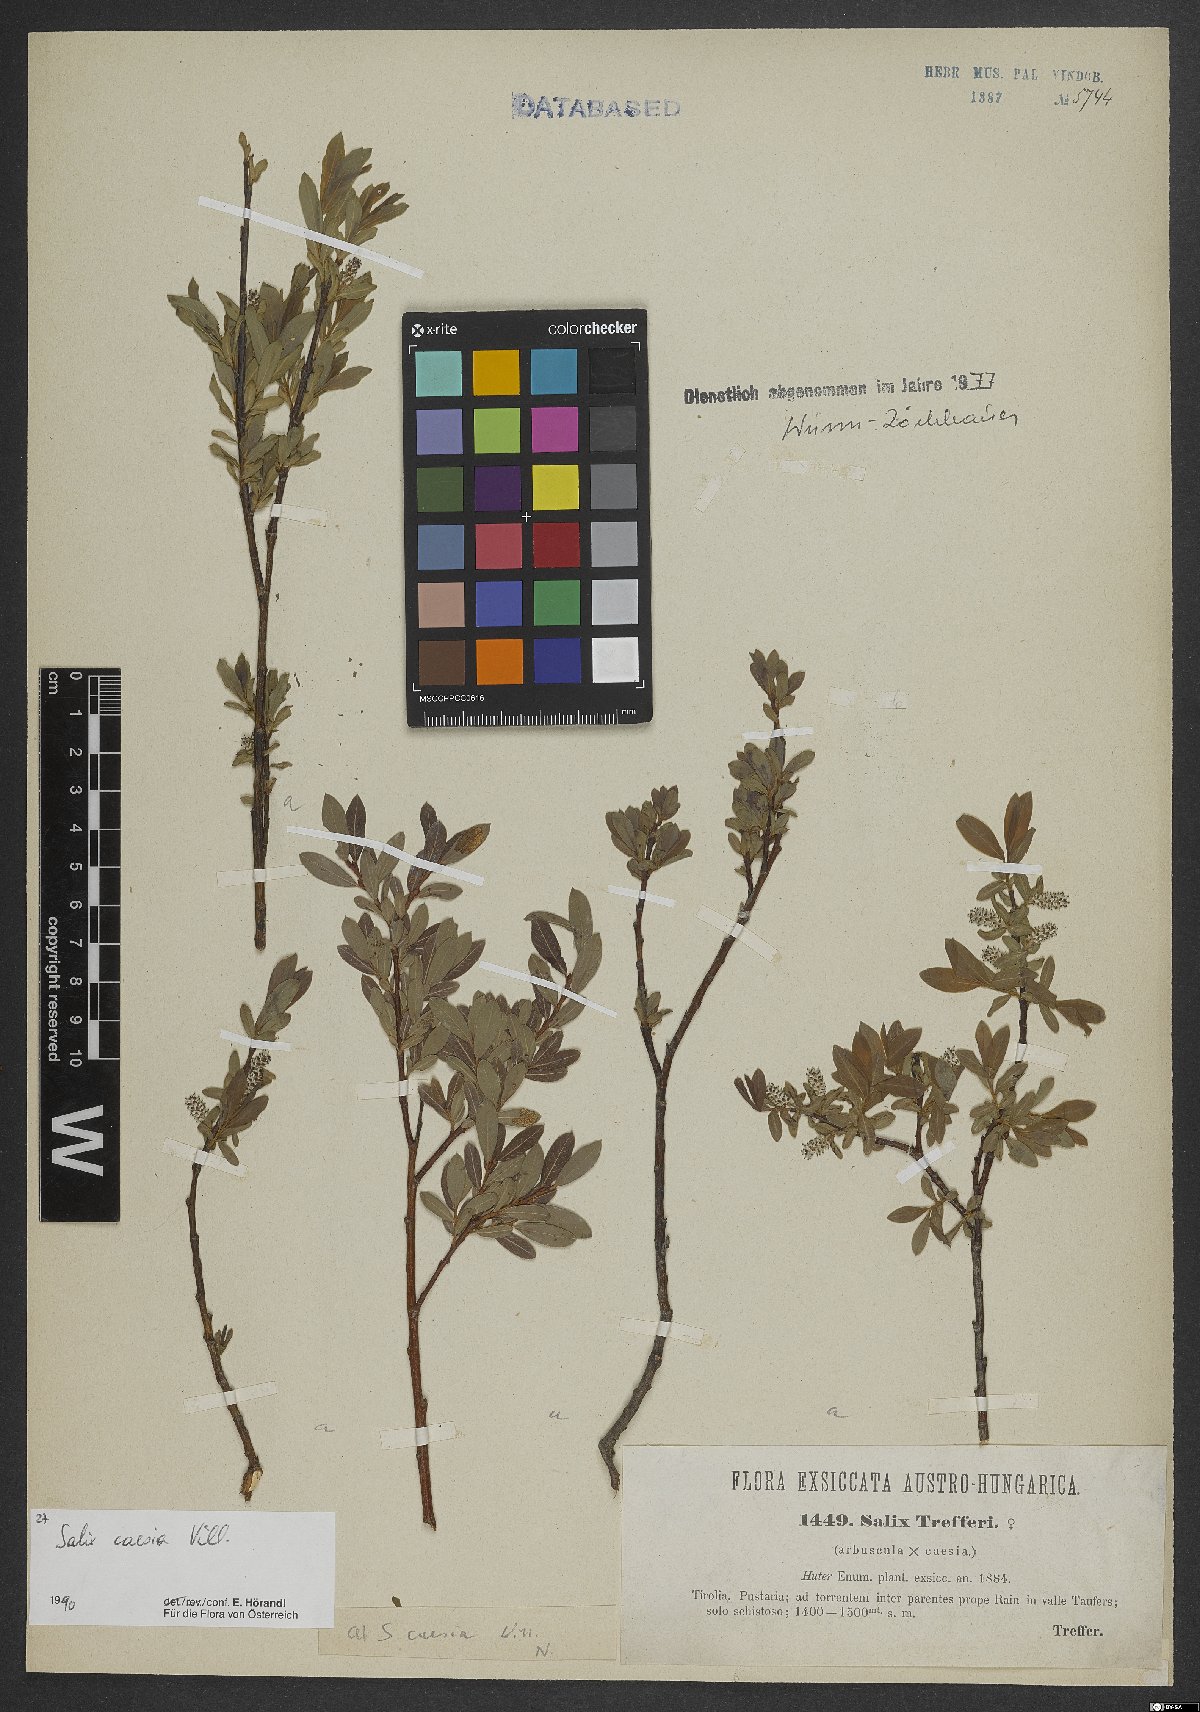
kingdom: Plantae
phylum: Tracheophyta
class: Magnoliopsida
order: Malpighiales
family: Salicaceae
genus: Salix
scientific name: Salix caesia
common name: Blue willow
